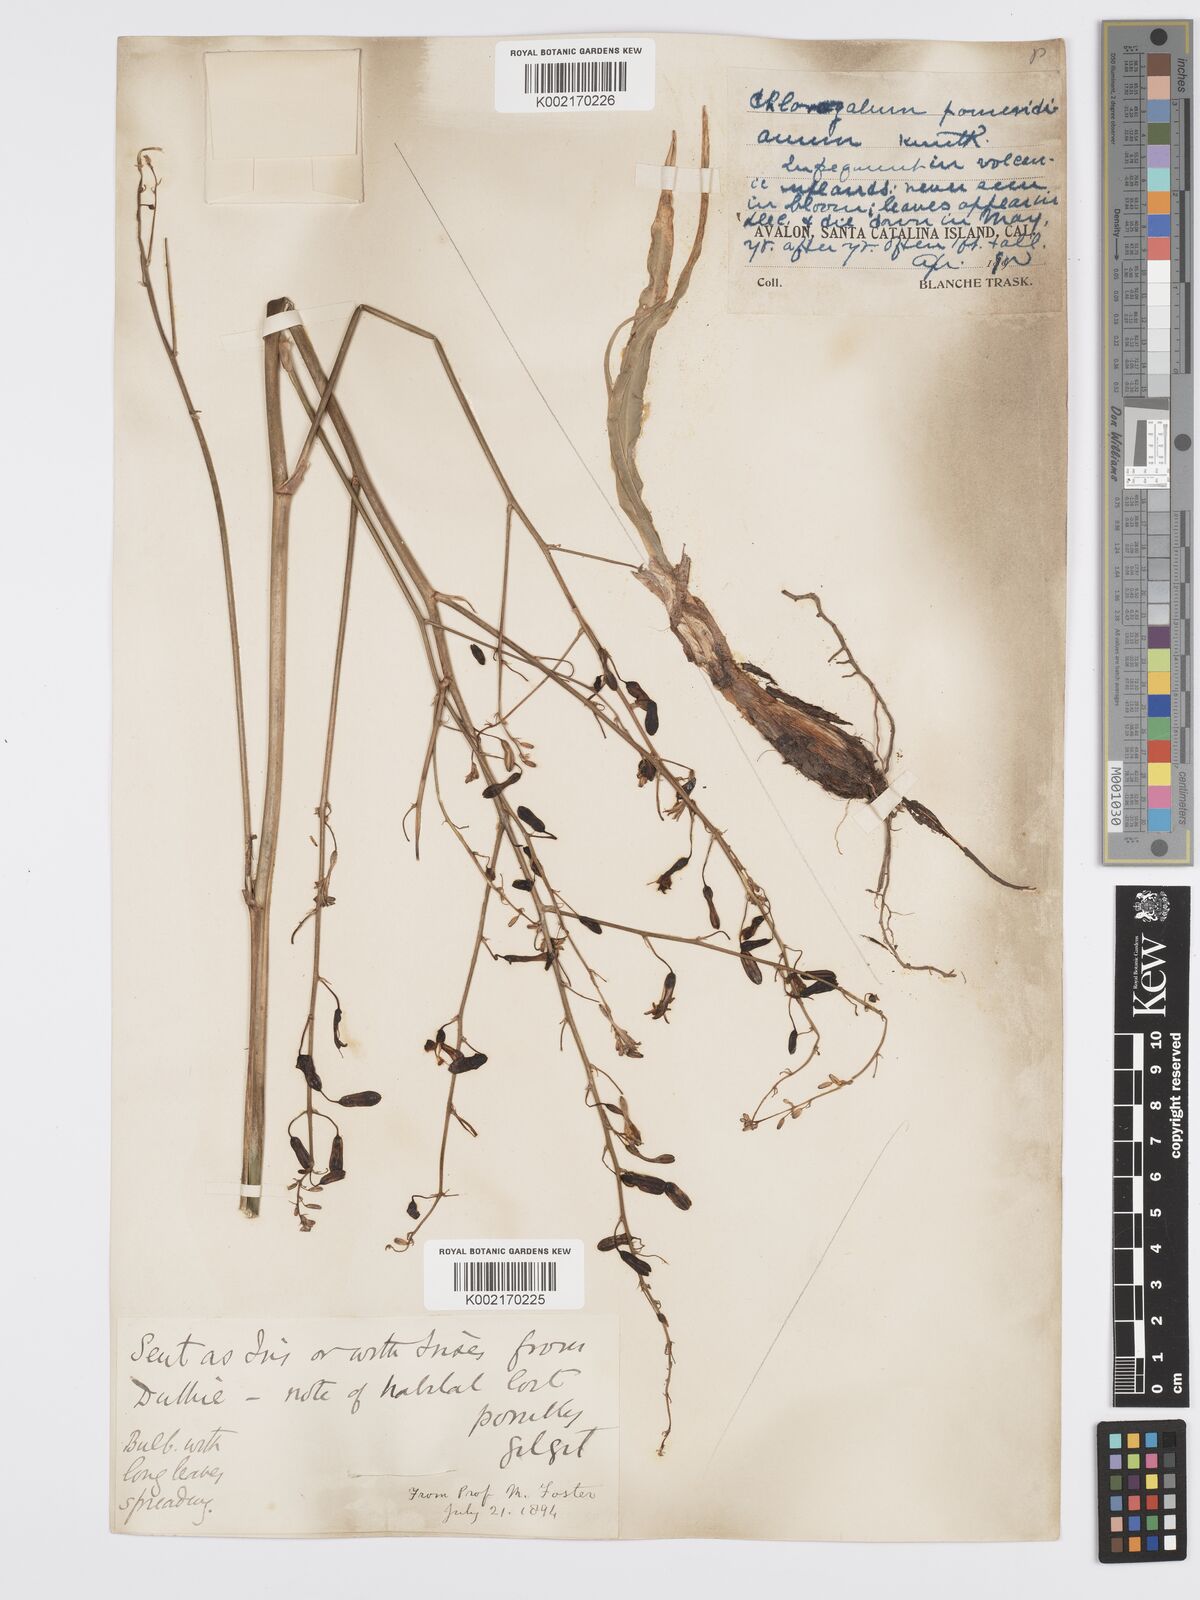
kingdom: Plantae
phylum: Tracheophyta
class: Liliopsida
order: Asparagales
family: Asparagaceae
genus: Chlorogalum
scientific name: Chlorogalum pomeridianum
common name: Amole
